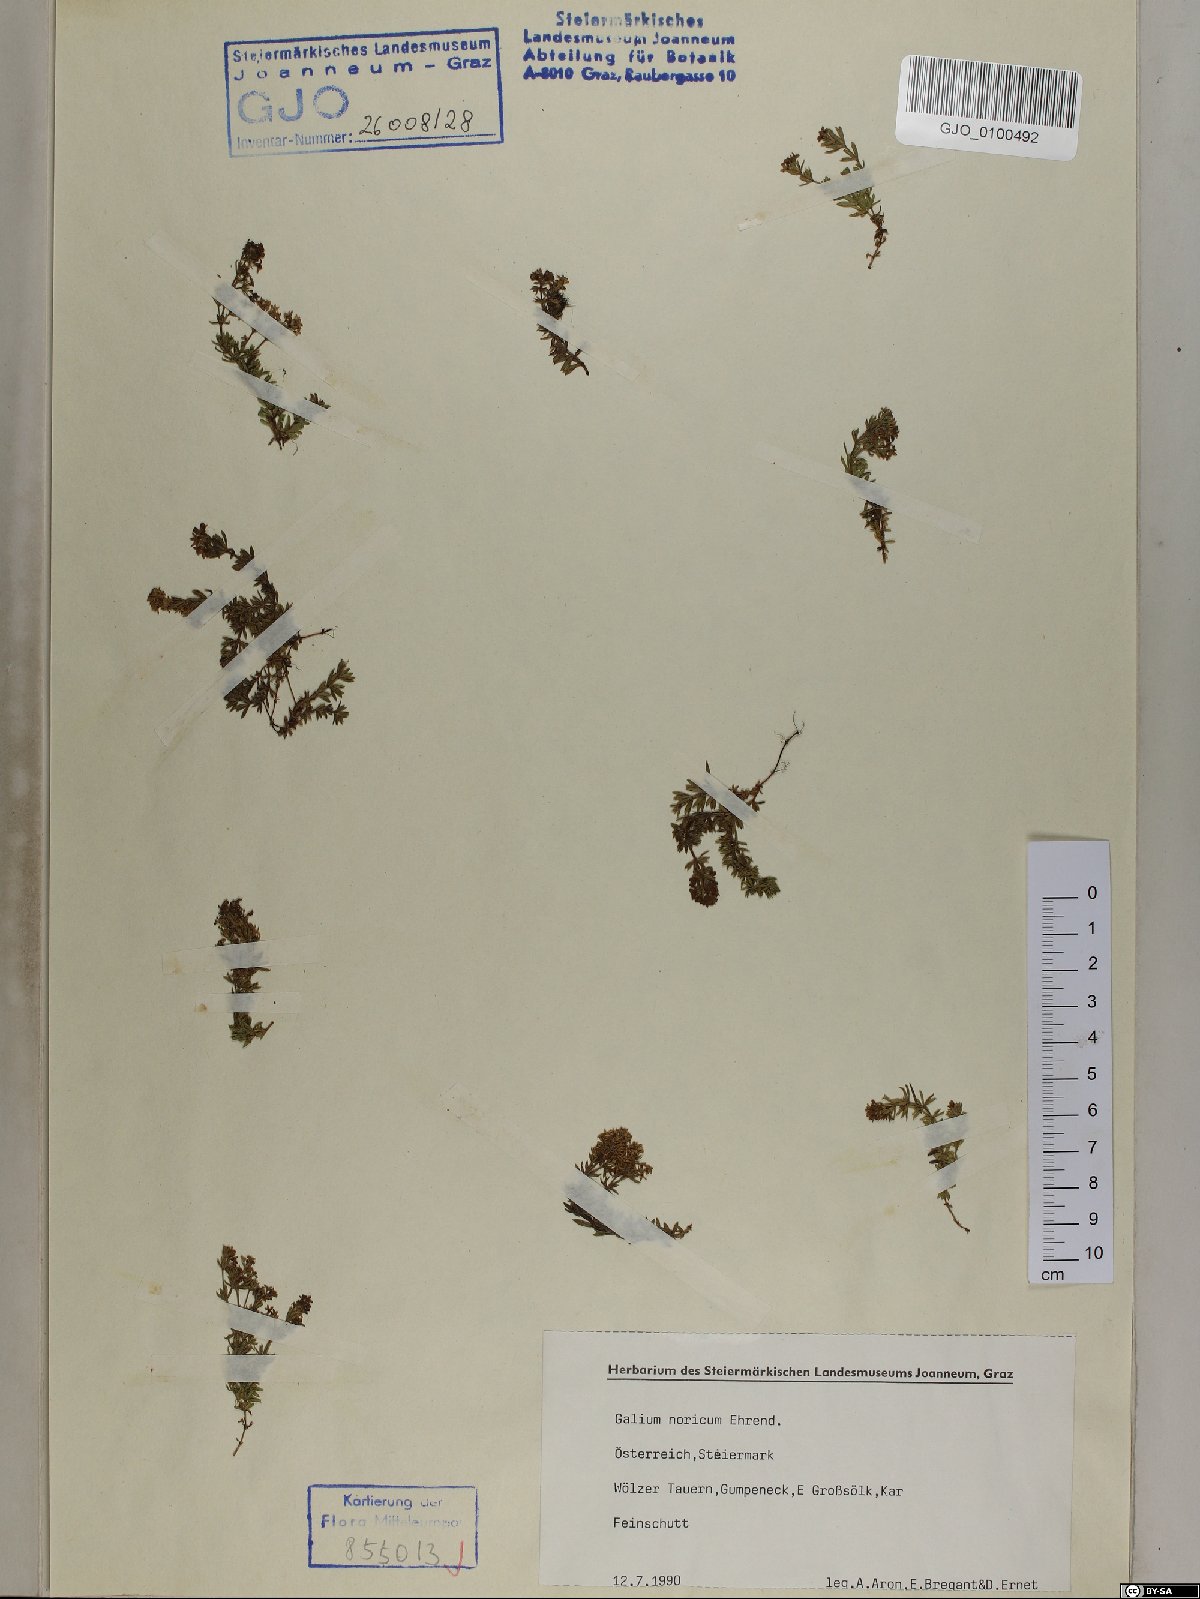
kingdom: Plantae
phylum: Tracheophyta
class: Magnoliopsida
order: Gentianales
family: Rubiaceae
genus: Galium
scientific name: Galium noricum
